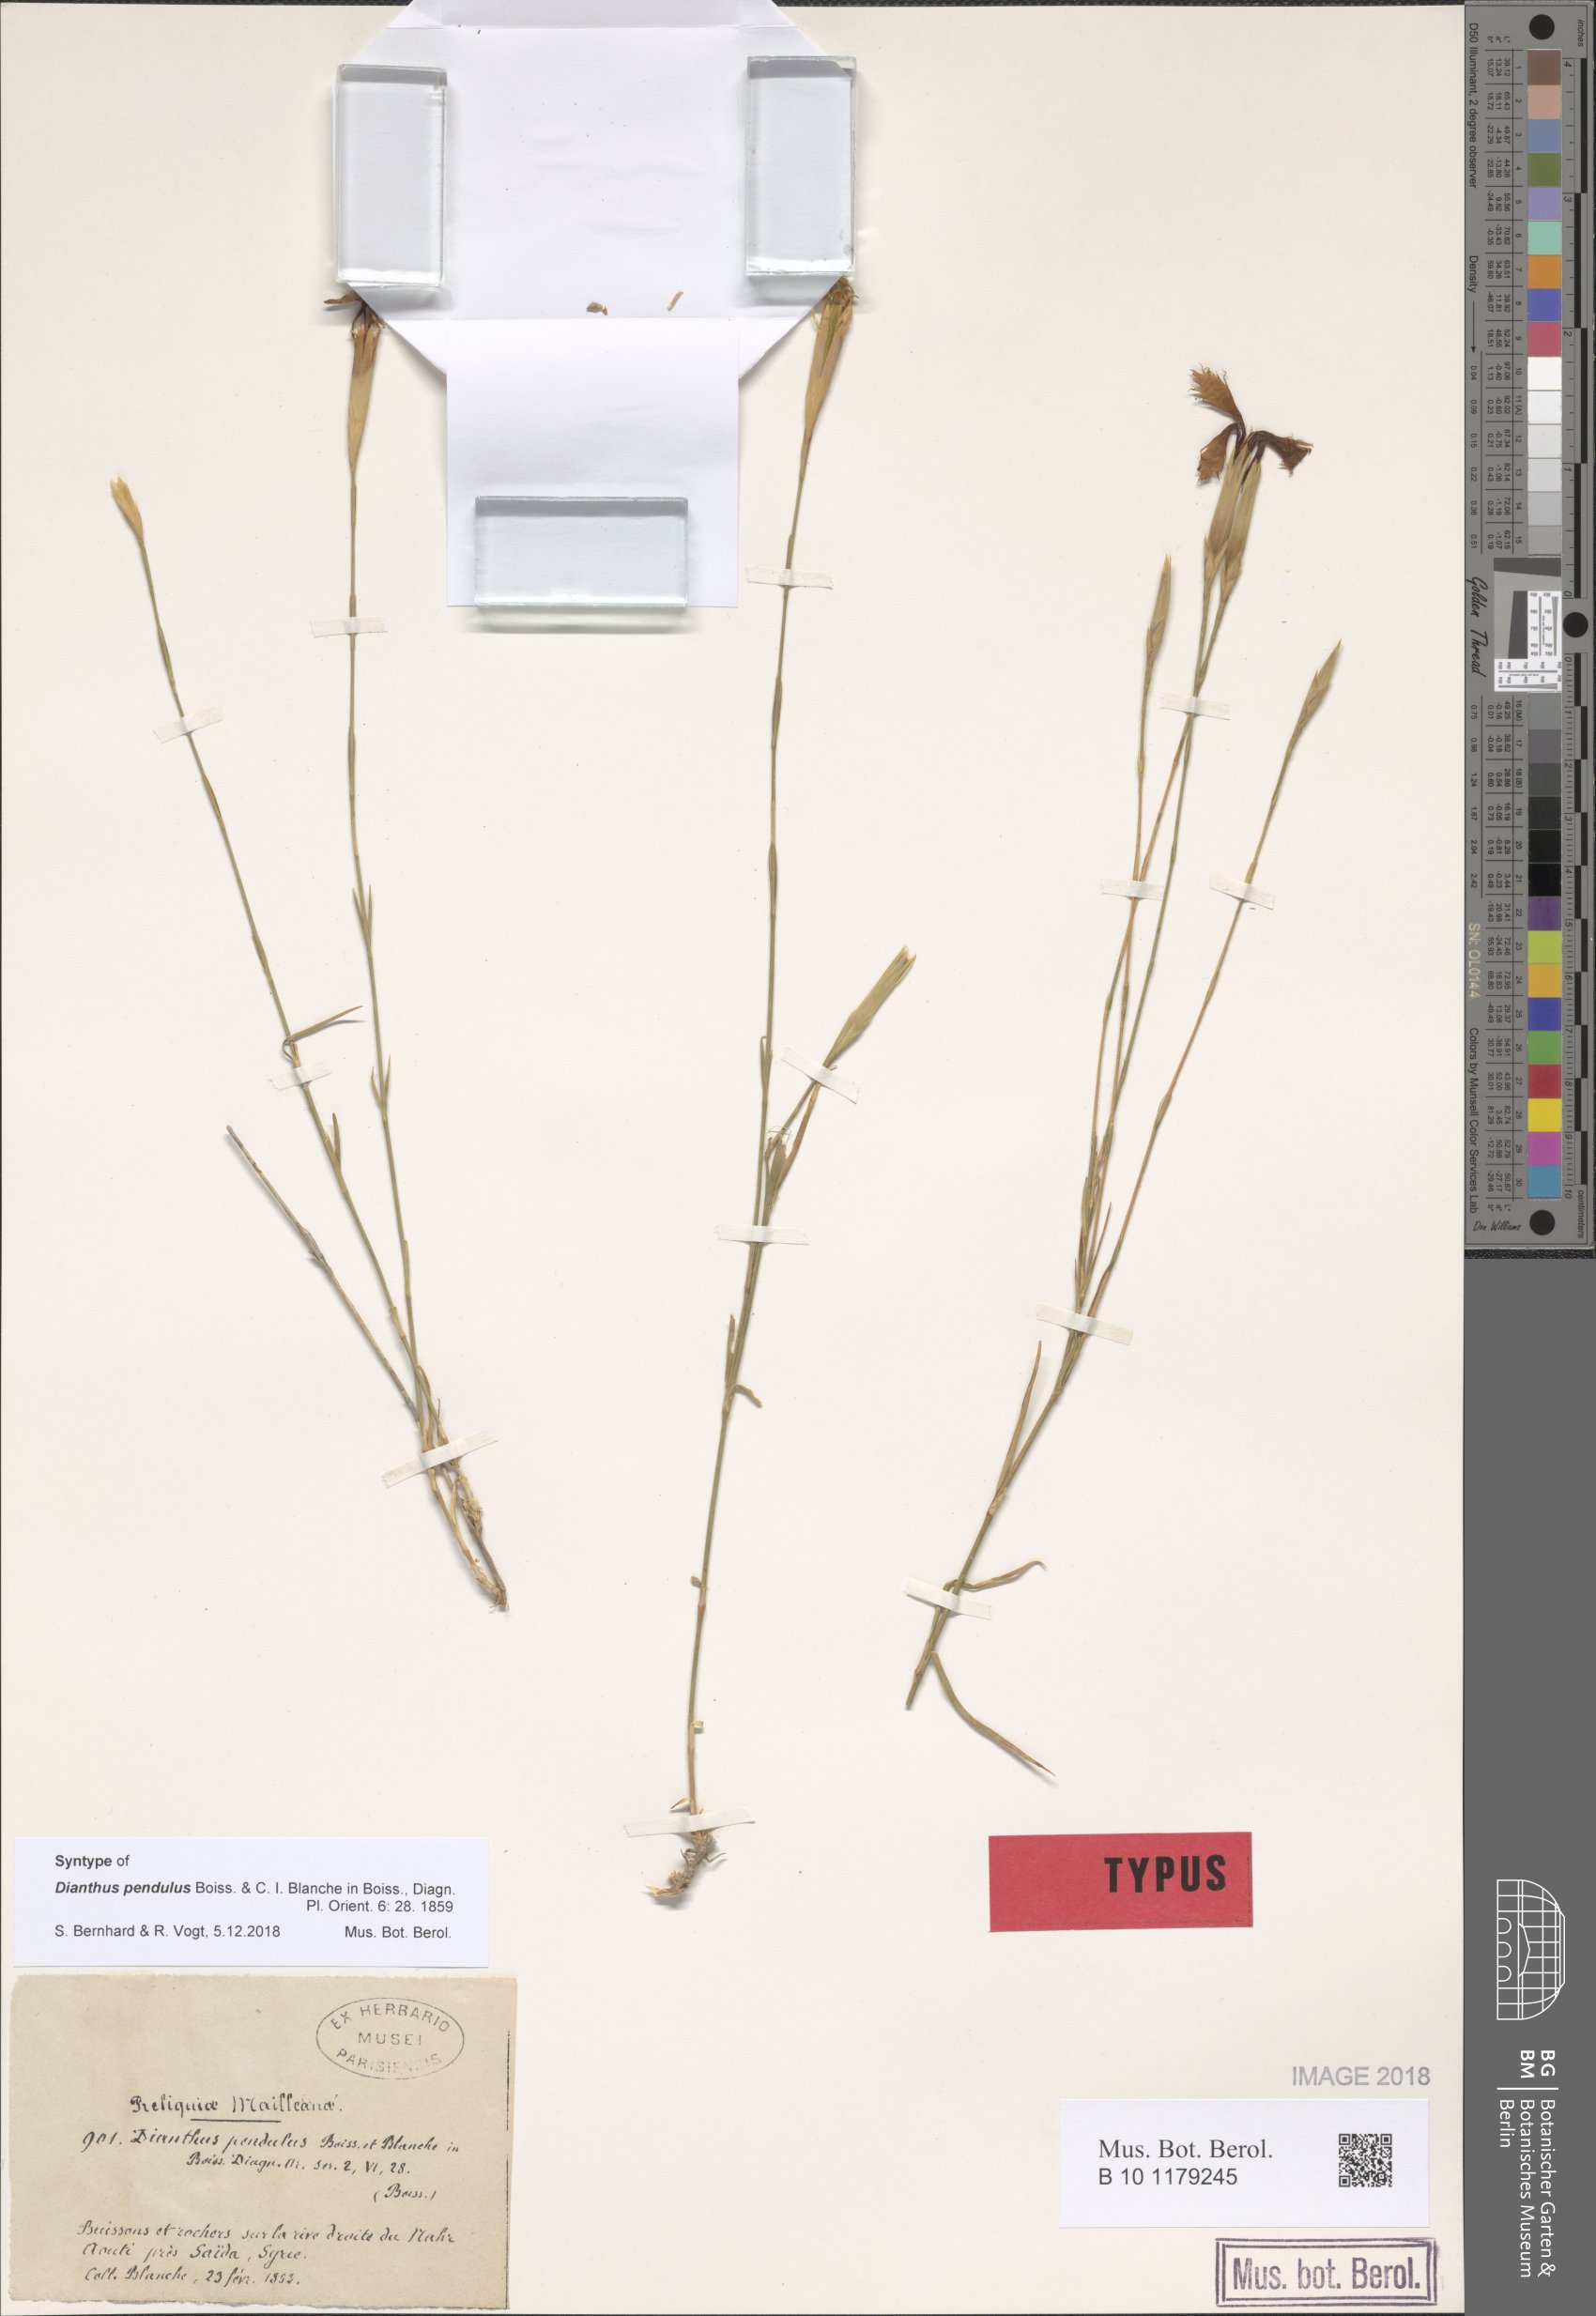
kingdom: Plantae
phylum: Tracheophyta
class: Magnoliopsida
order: Caryophyllales
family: Caryophyllaceae
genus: Dianthus
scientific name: Dianthus pendulus
